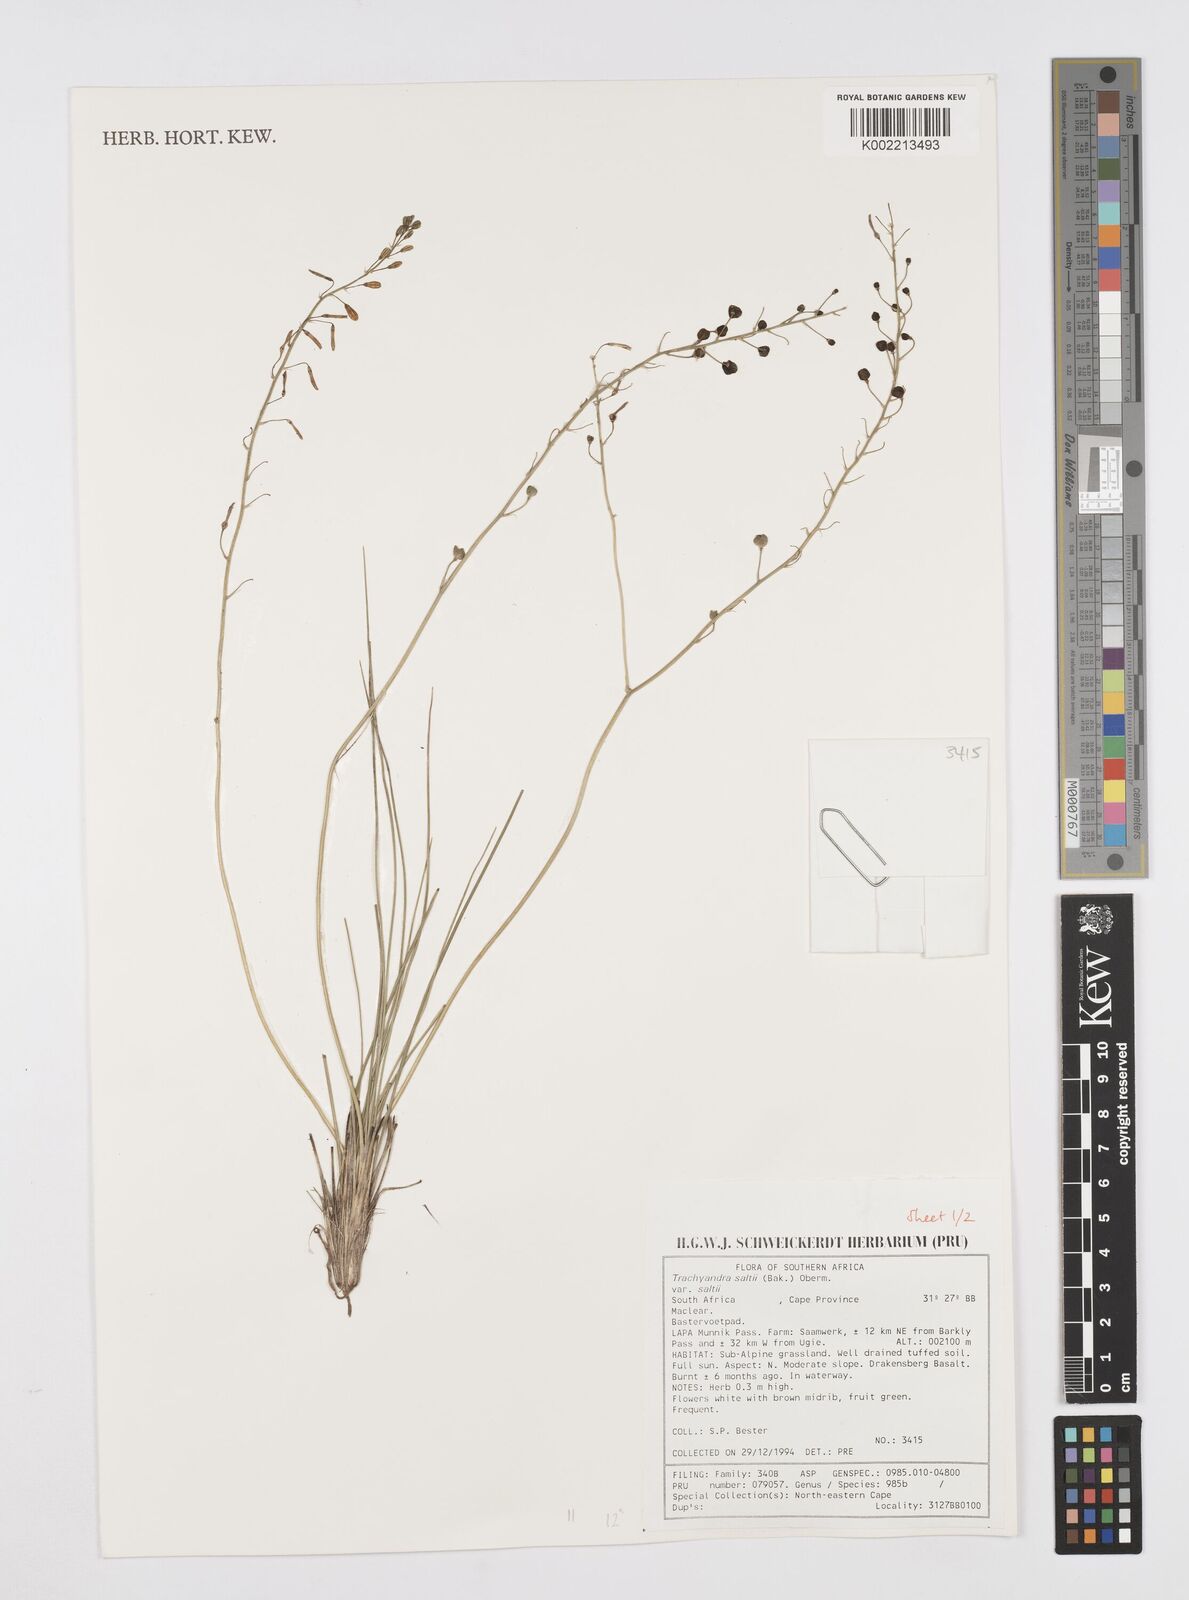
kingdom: Plantae
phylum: Tracheophyta
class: Liliopsida
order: Asparagales
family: Asphodelaceae
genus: Trachyandra
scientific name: Trachyandra saltii
